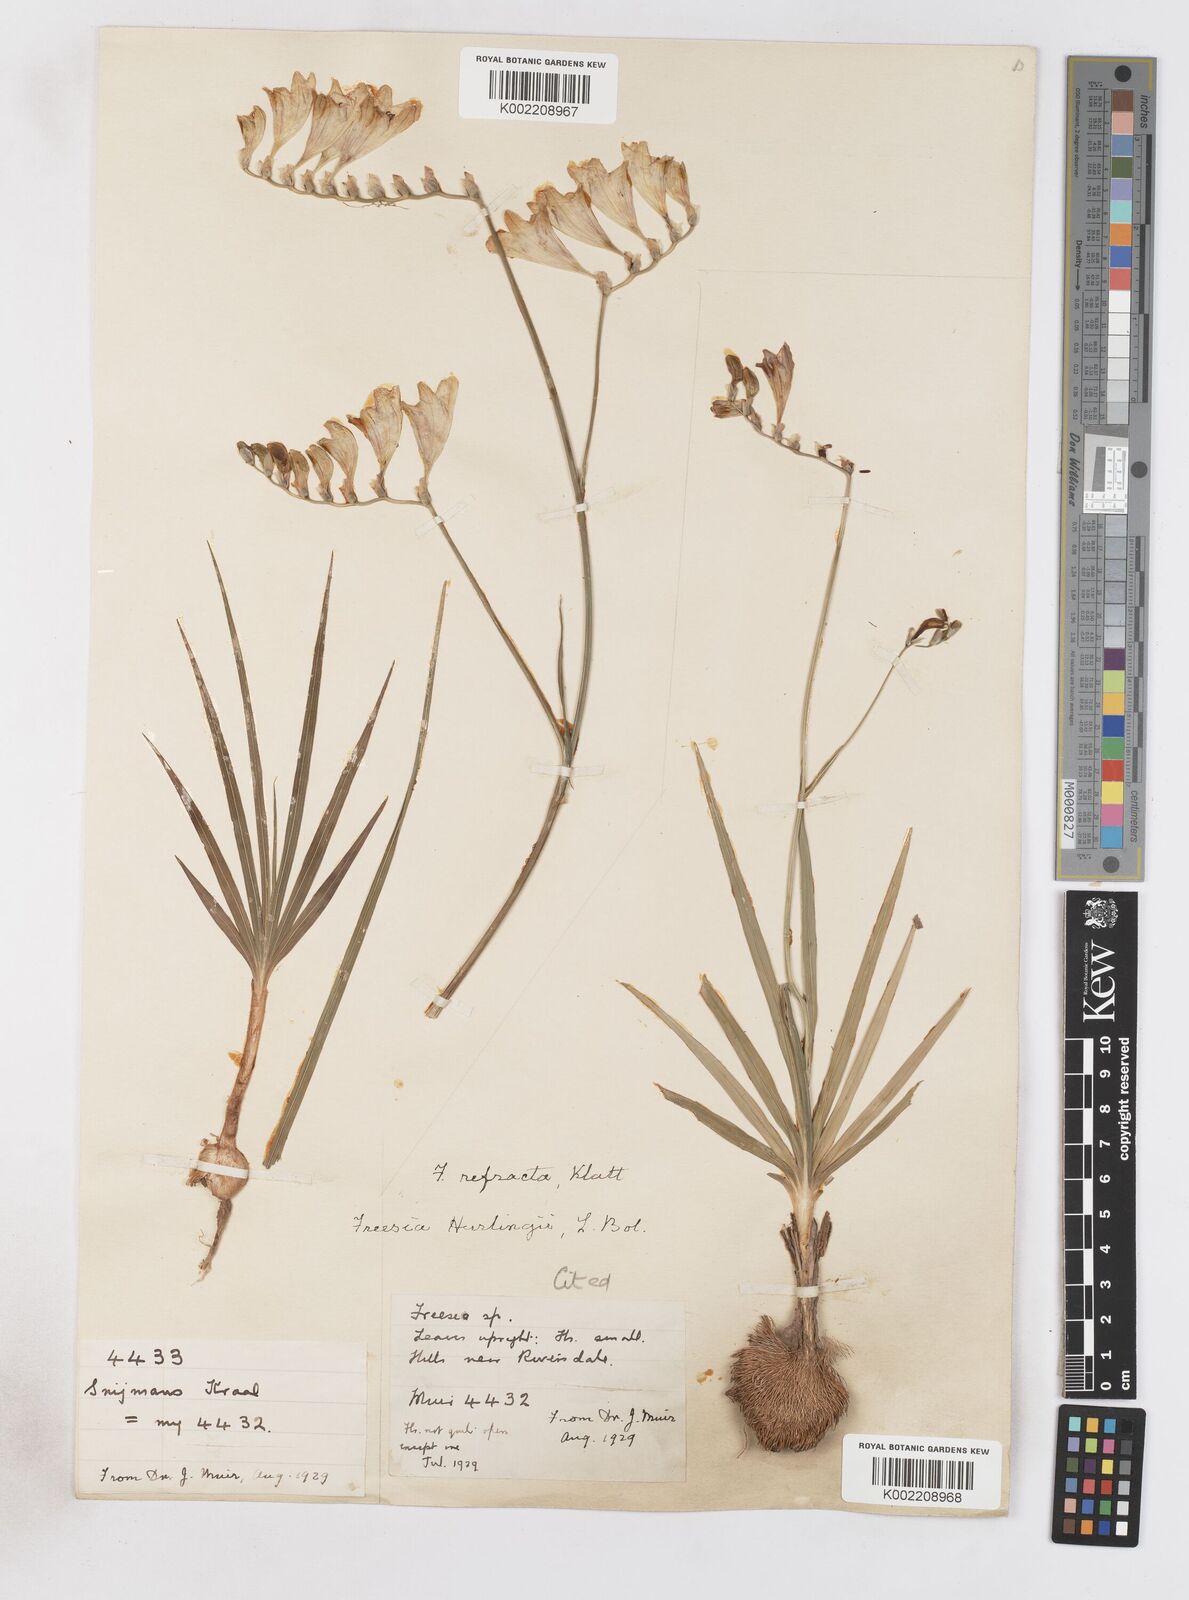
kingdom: Plantae
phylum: Tracheophyta
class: Liliopsida
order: Asparagales
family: Iridaceae
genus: Freesia
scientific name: Freesia refracta
